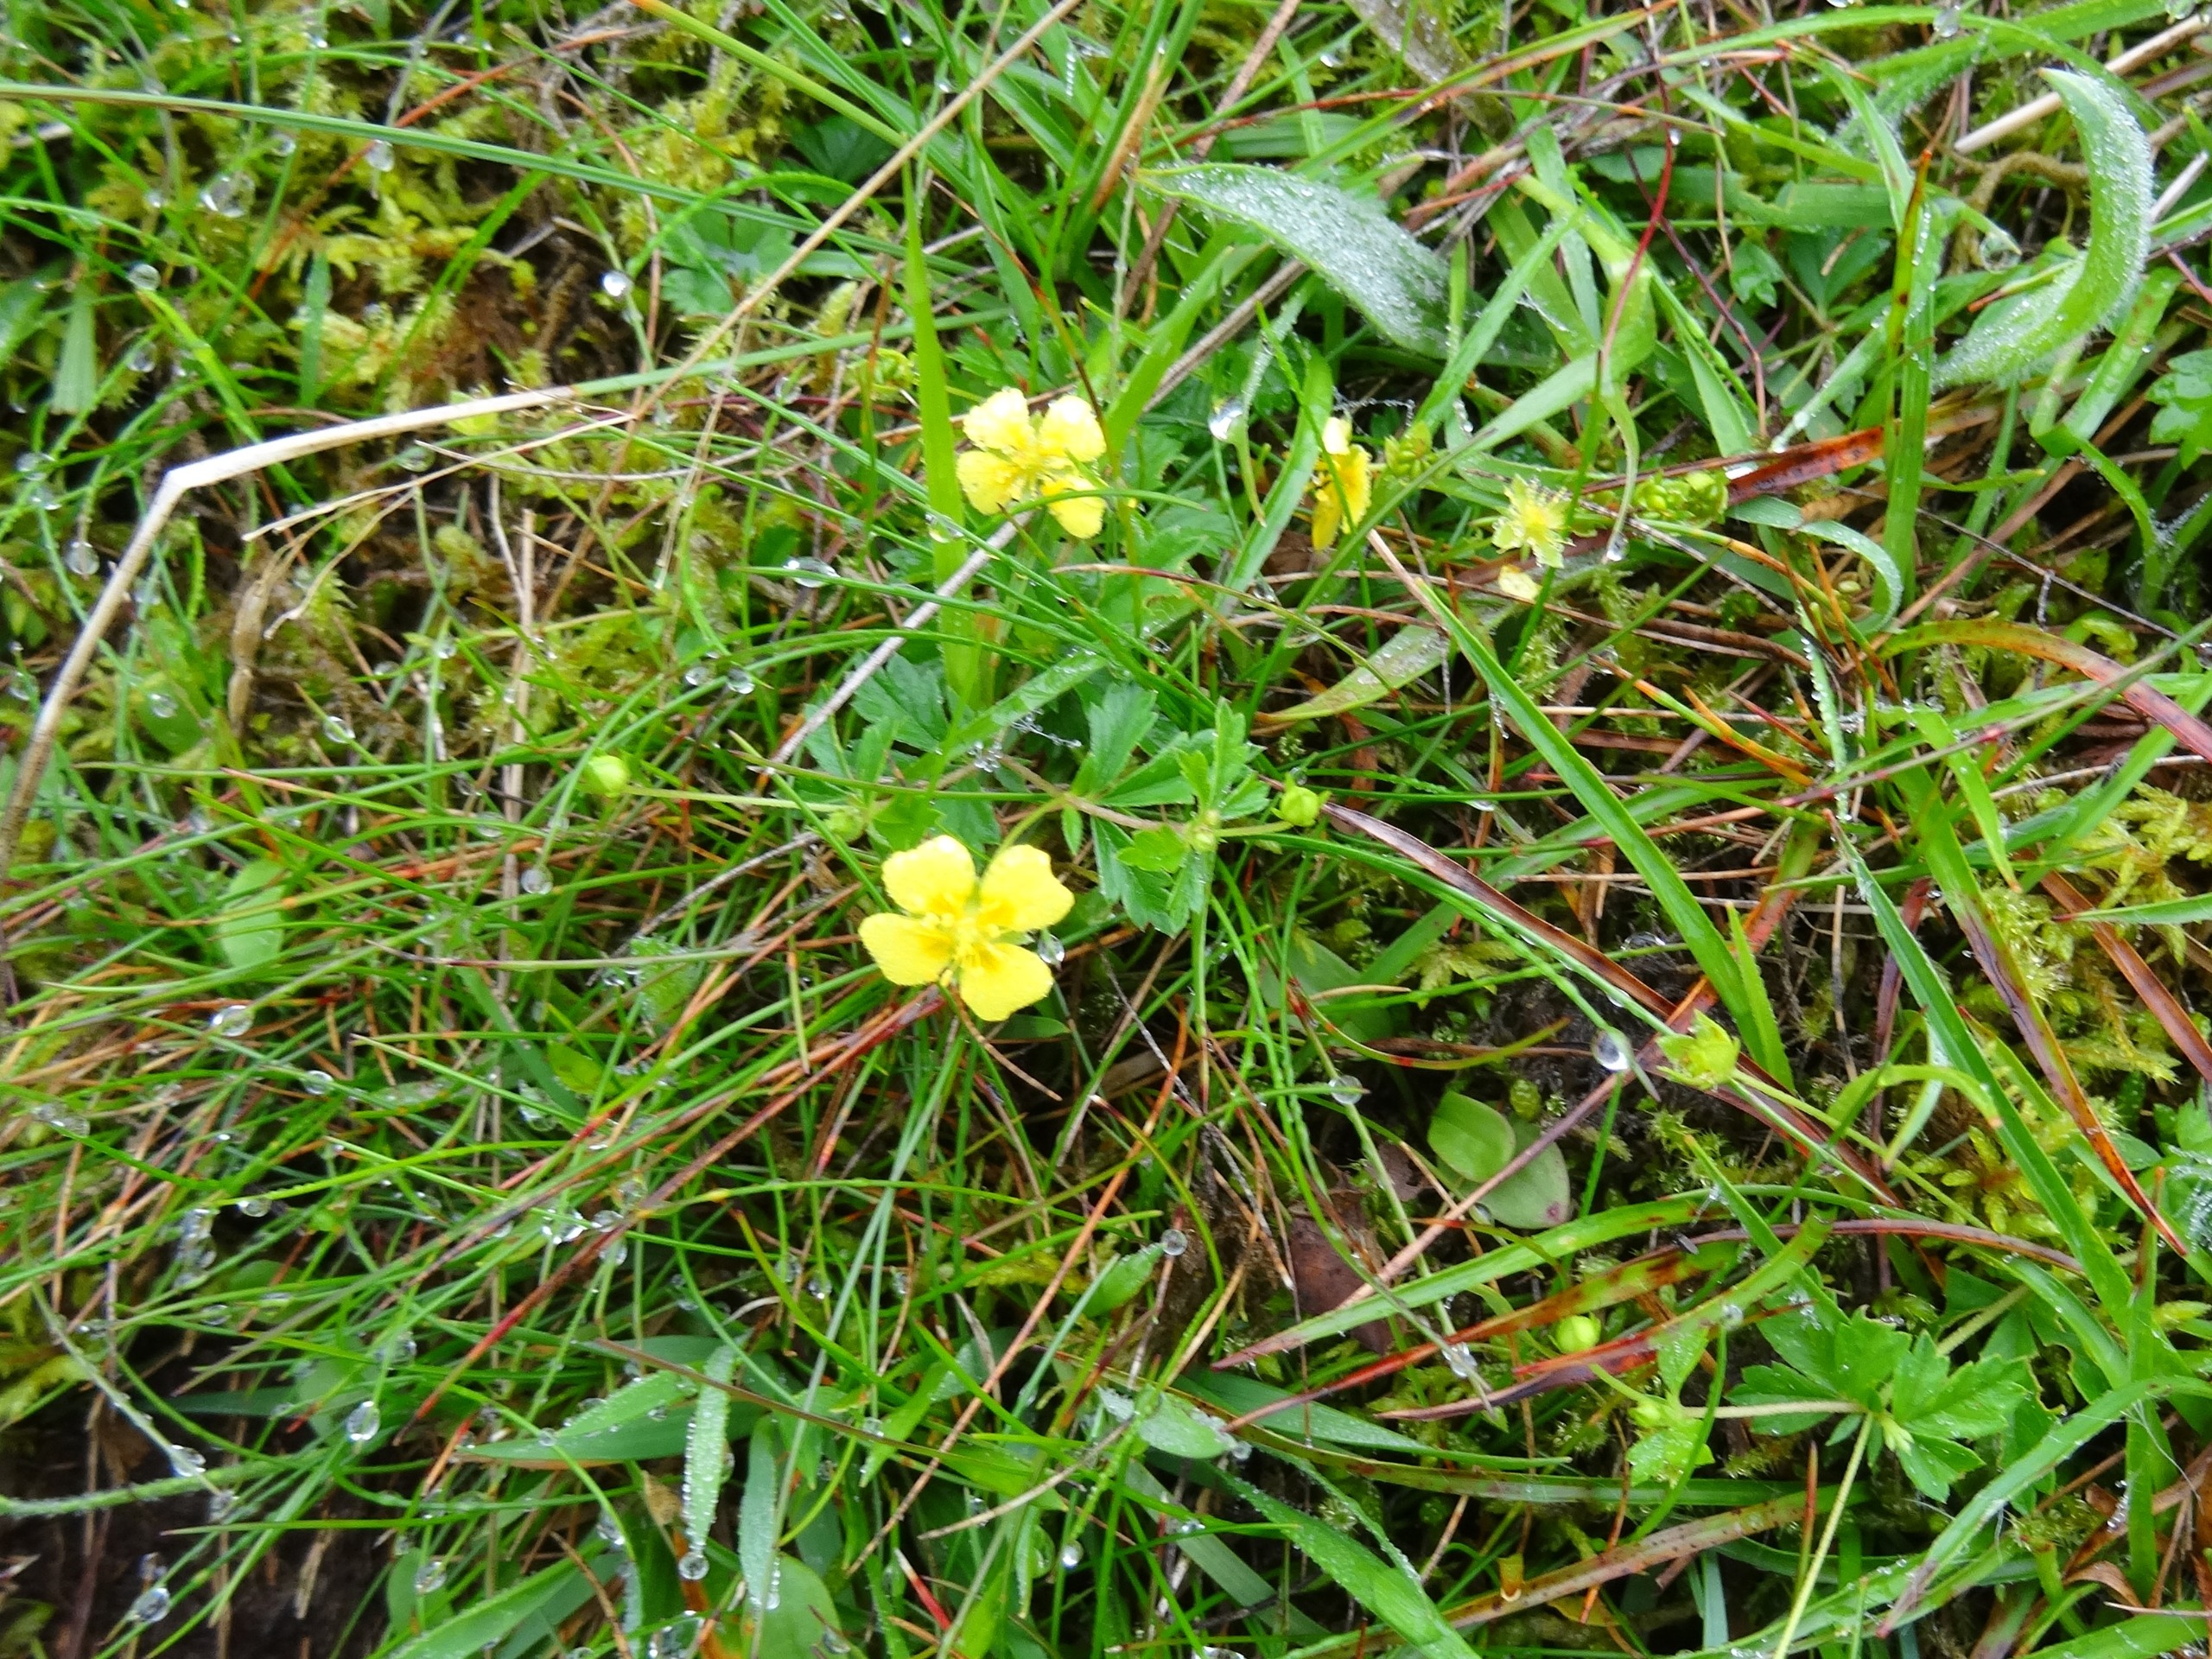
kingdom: Plantae
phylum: Tracheophyta
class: Magnoliopsida
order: Rosales
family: Rosaceae
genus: Potentilla
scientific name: Potentilla erecta
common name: Tormentil
